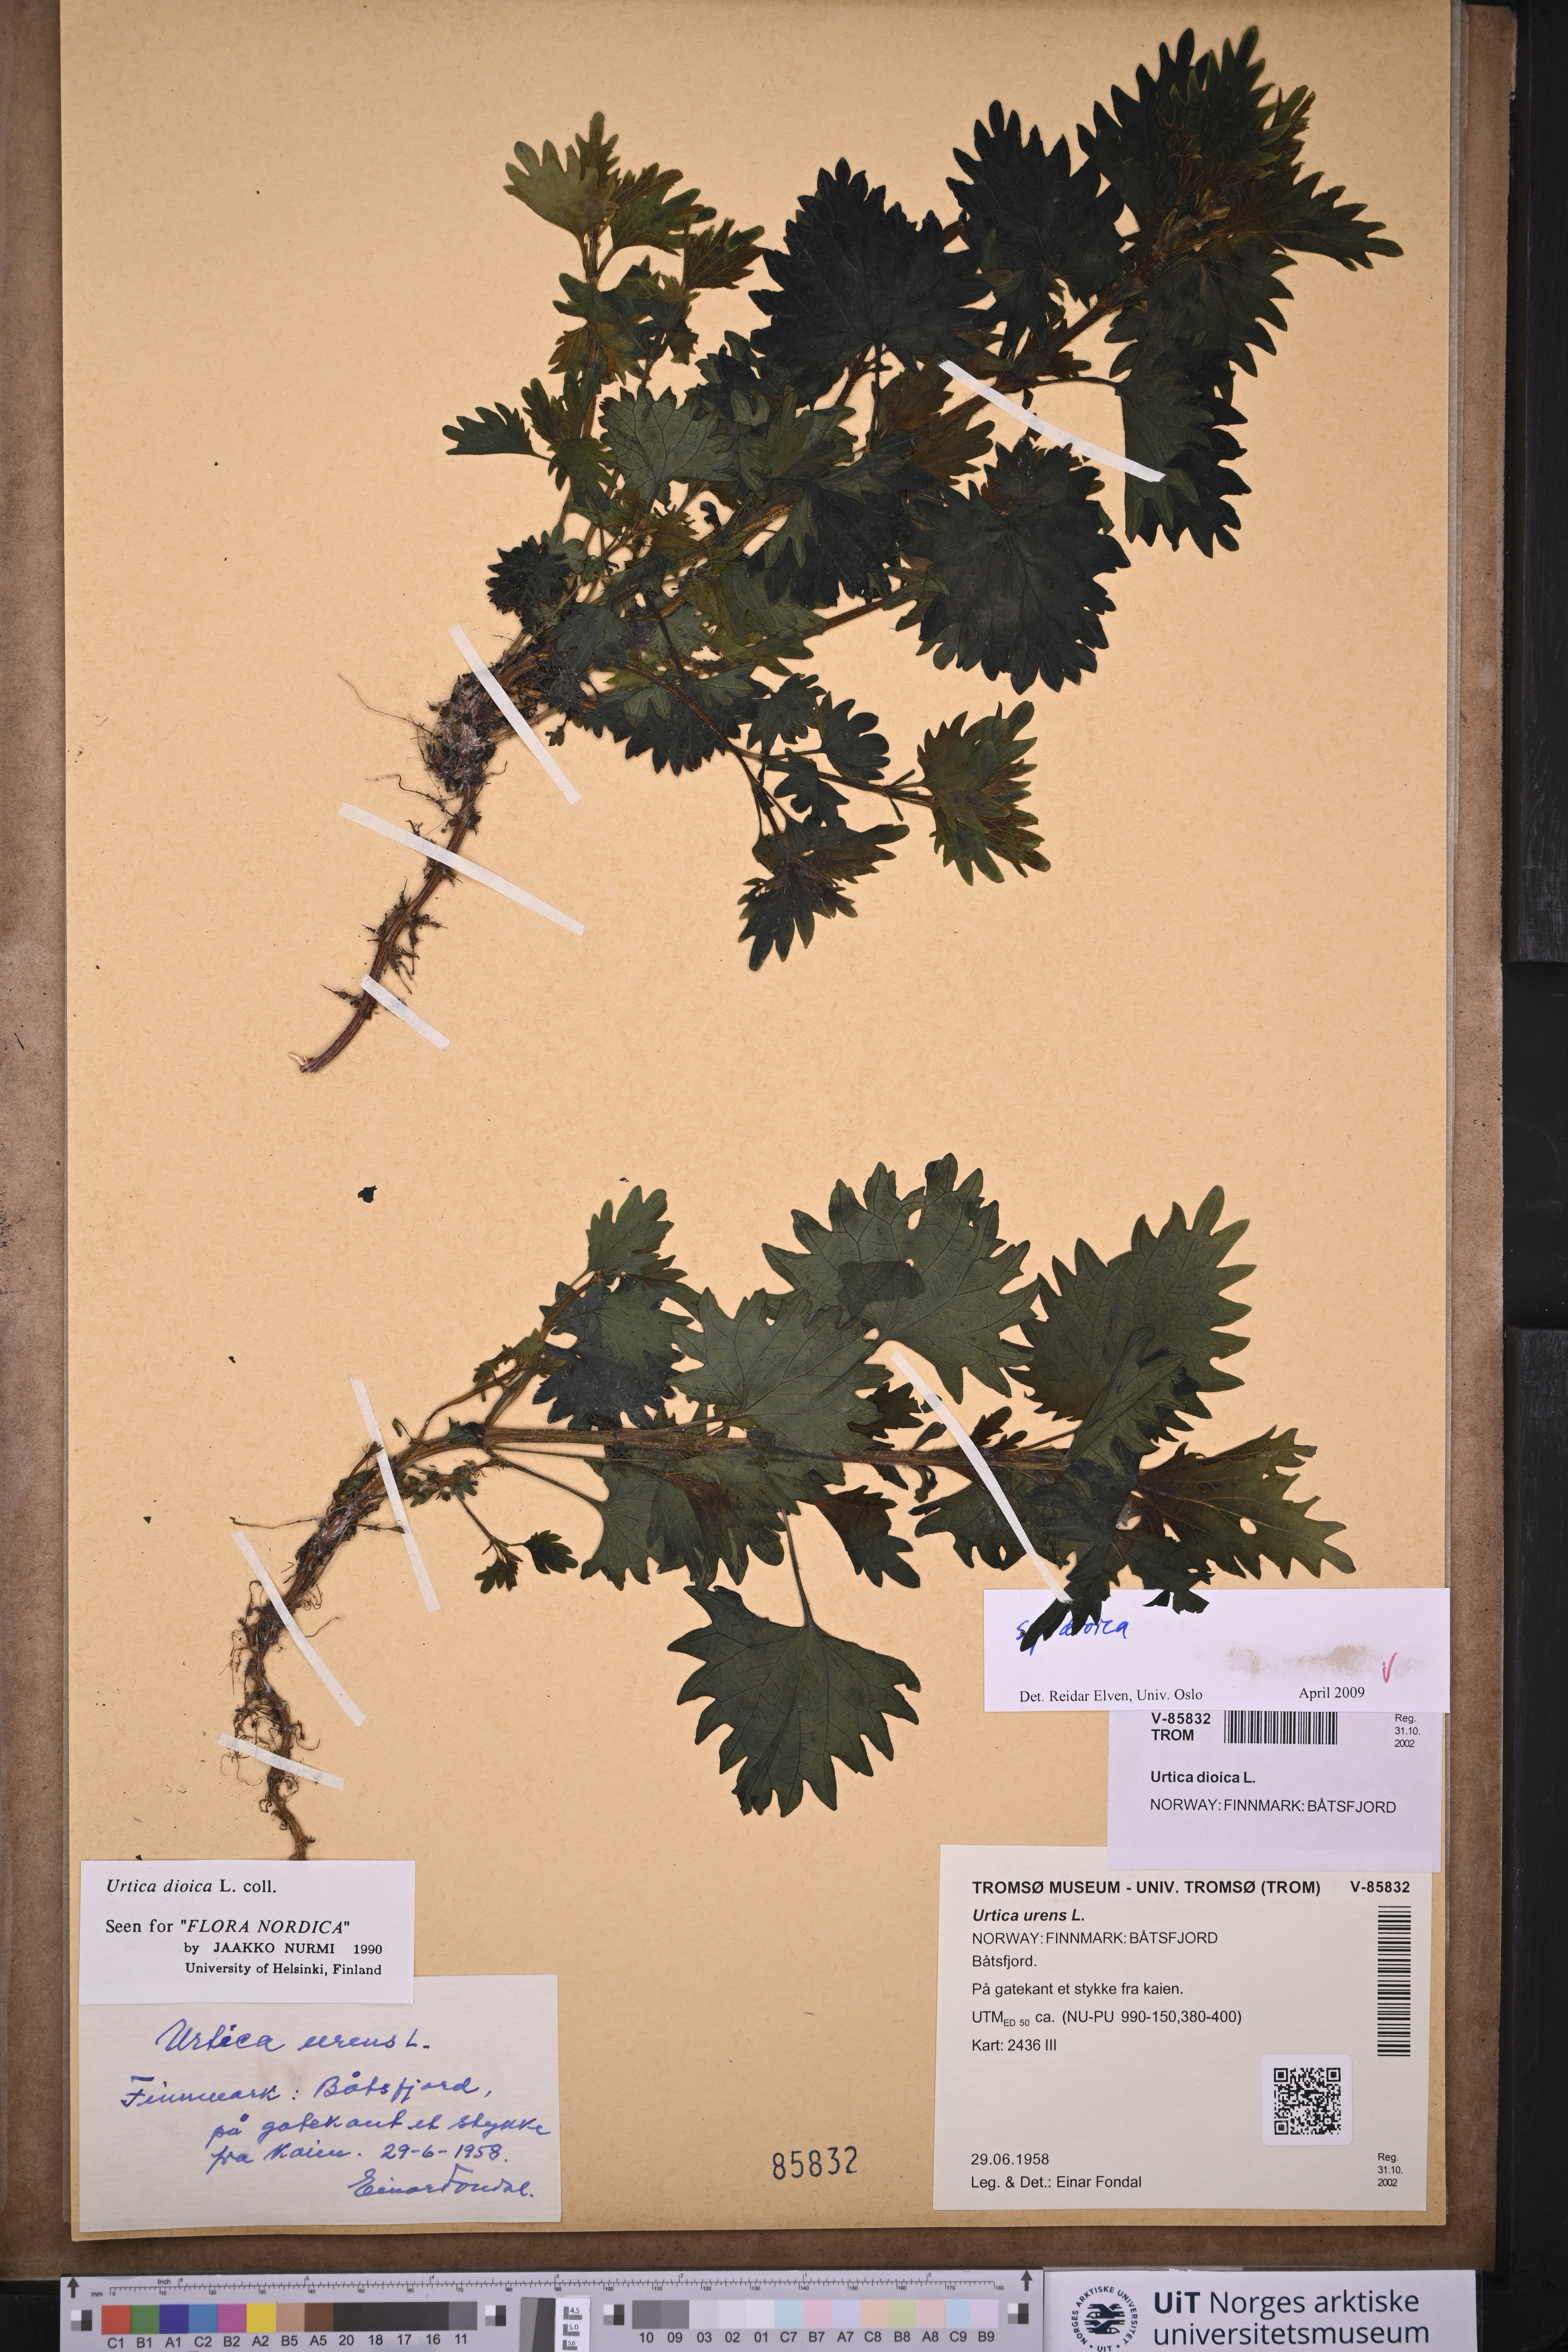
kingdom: Plantae
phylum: Tracheophyta
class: Magnoliopsida
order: Rosales
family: Urticaceae
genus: Urtica
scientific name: Urtica dioica
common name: Common nettle
